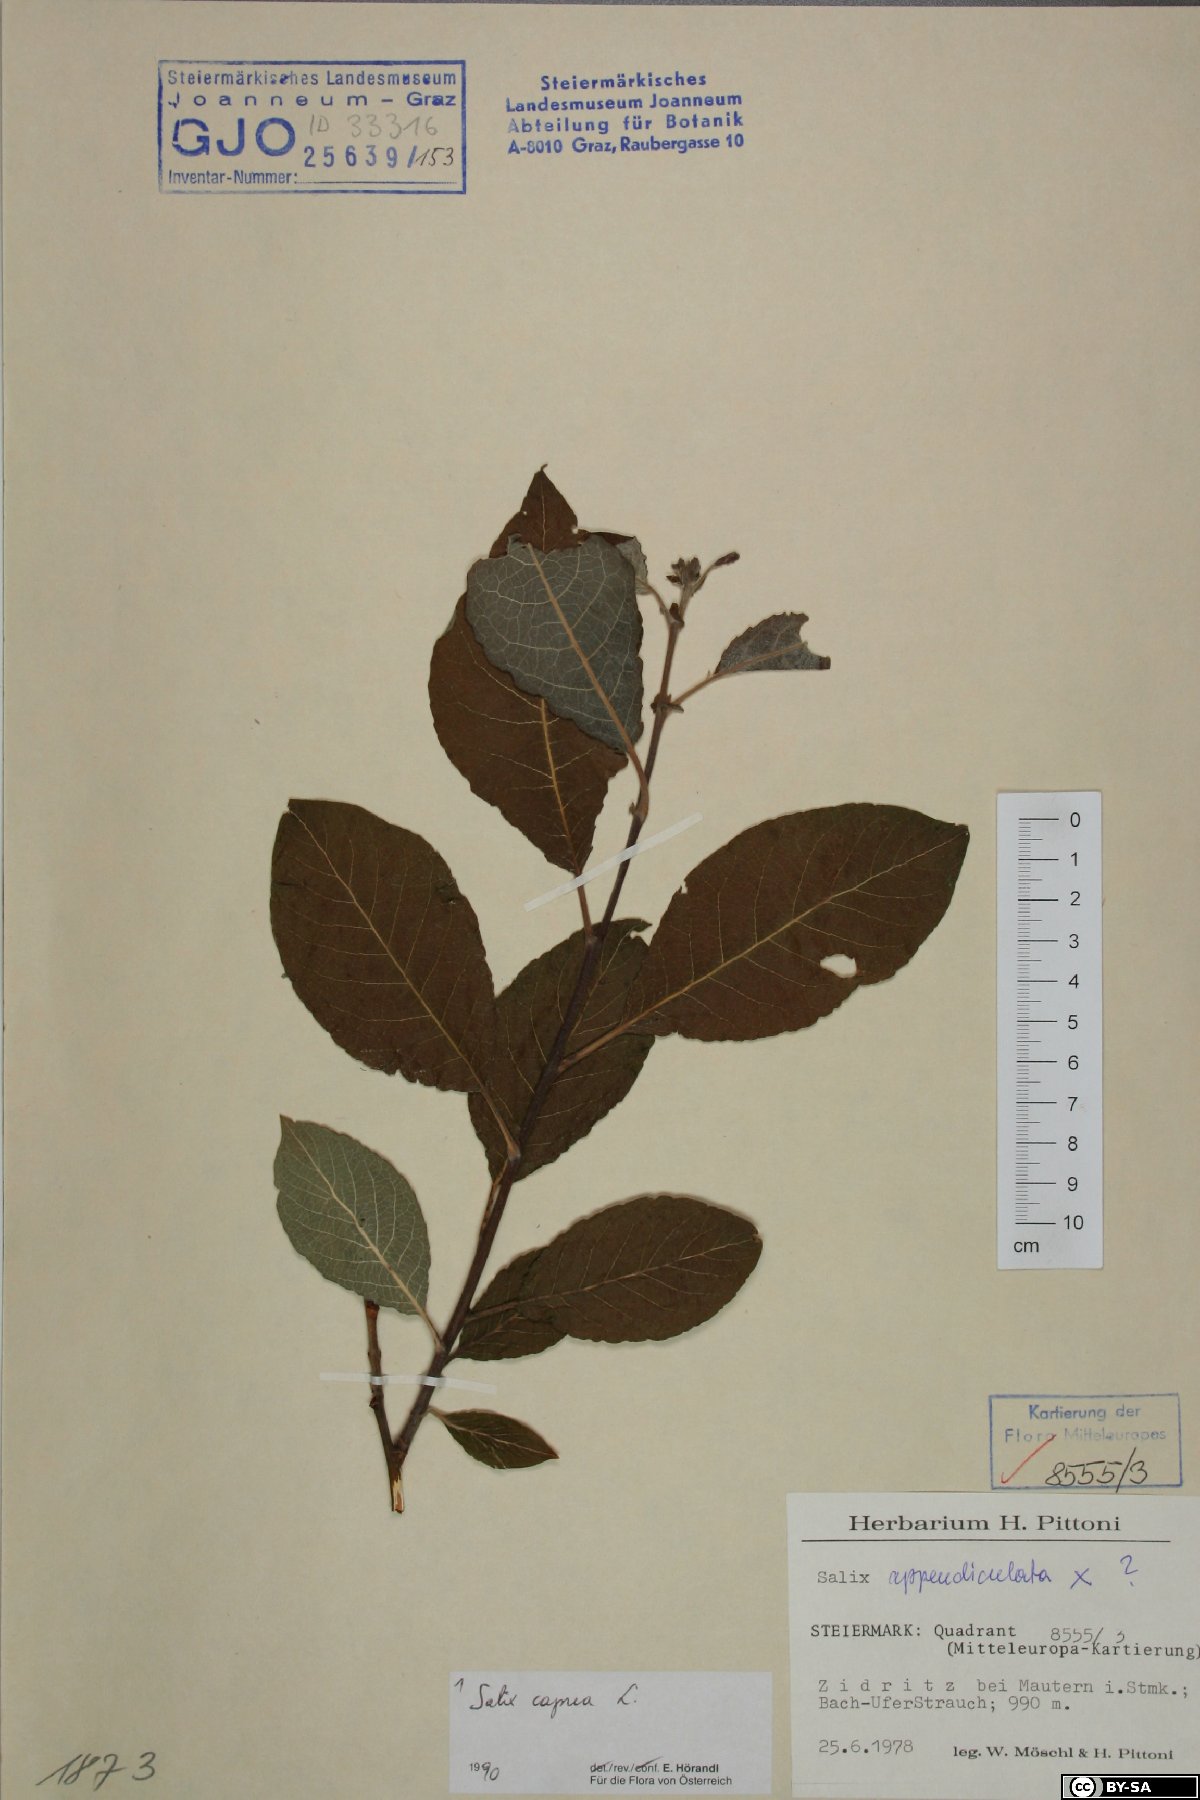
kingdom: Plantae
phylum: Tracheophyta
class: Magnoliopsida
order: Malpighiales
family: Salicaceae
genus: Salix
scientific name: Salix caprea
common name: Goat willow
